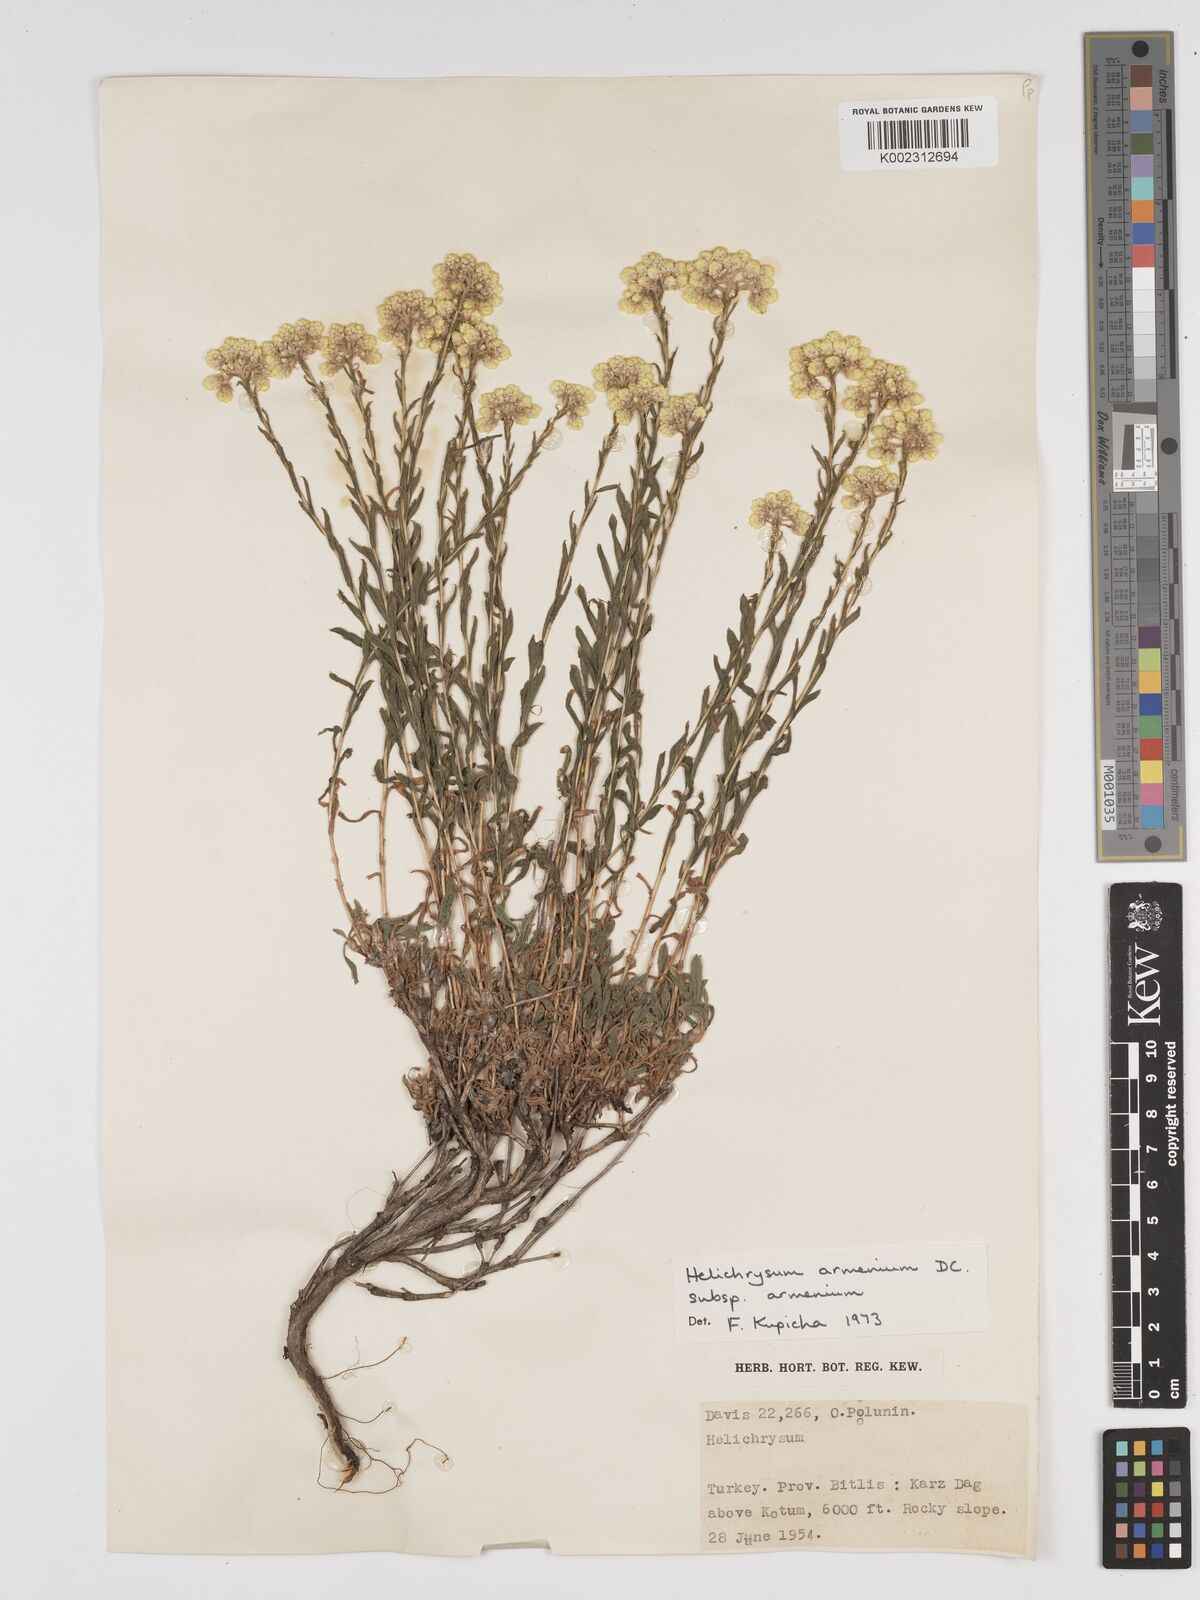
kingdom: Plantae
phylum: Tracheophyta
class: Magnoliopsida
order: Asterales
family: Asteraceae
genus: Helichrysum
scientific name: Helichrysum armenium
